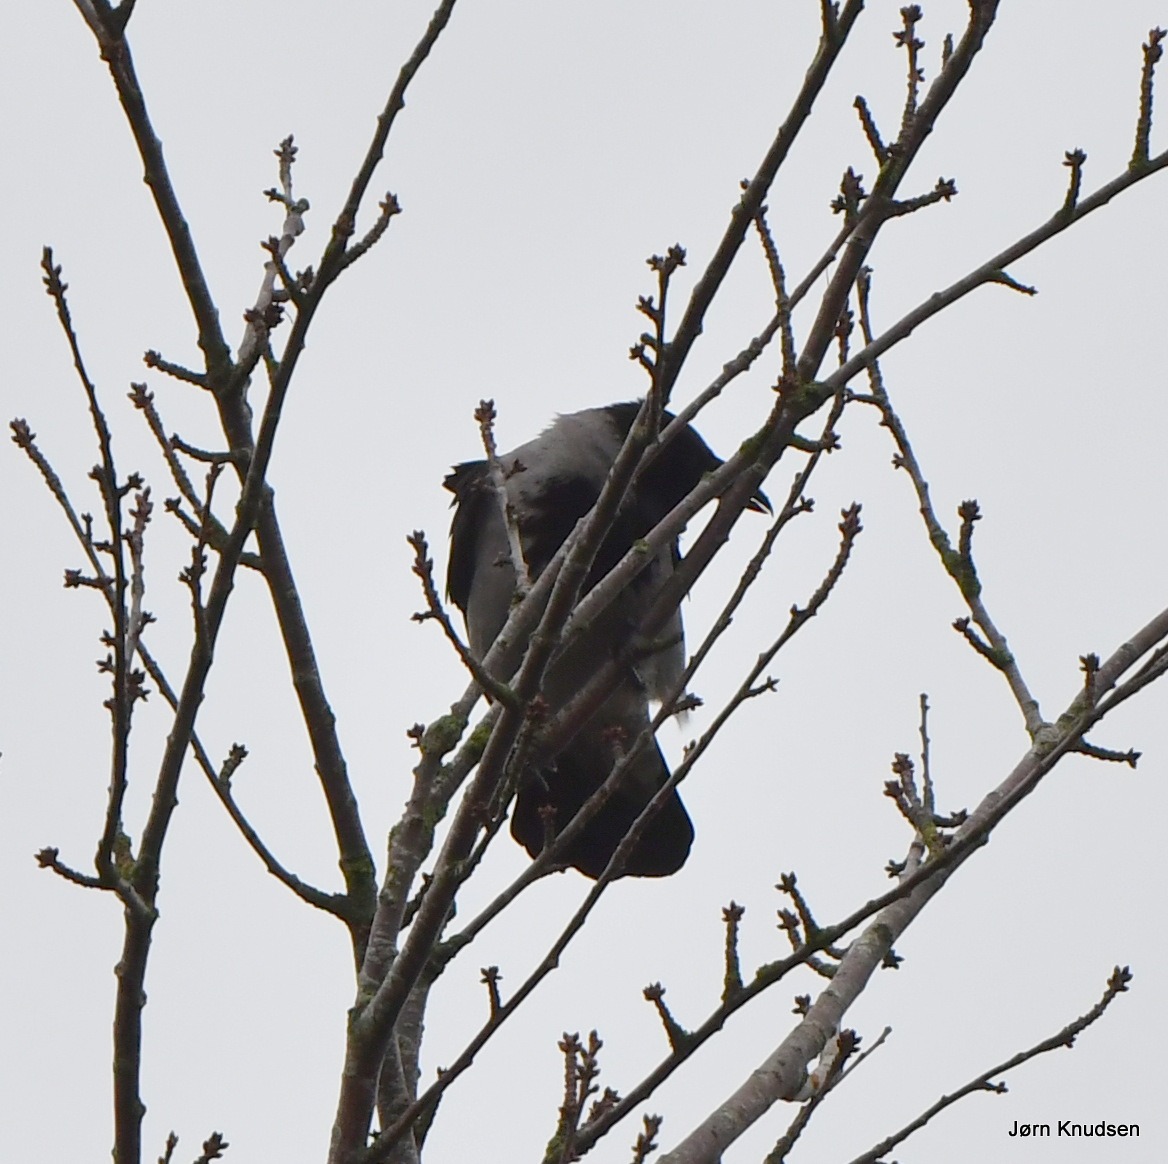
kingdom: Animalia
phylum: Chordata
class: Aves
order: Passeriformes
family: Corvidae
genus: Corvus
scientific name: Corvus cornix
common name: Gråkrage
